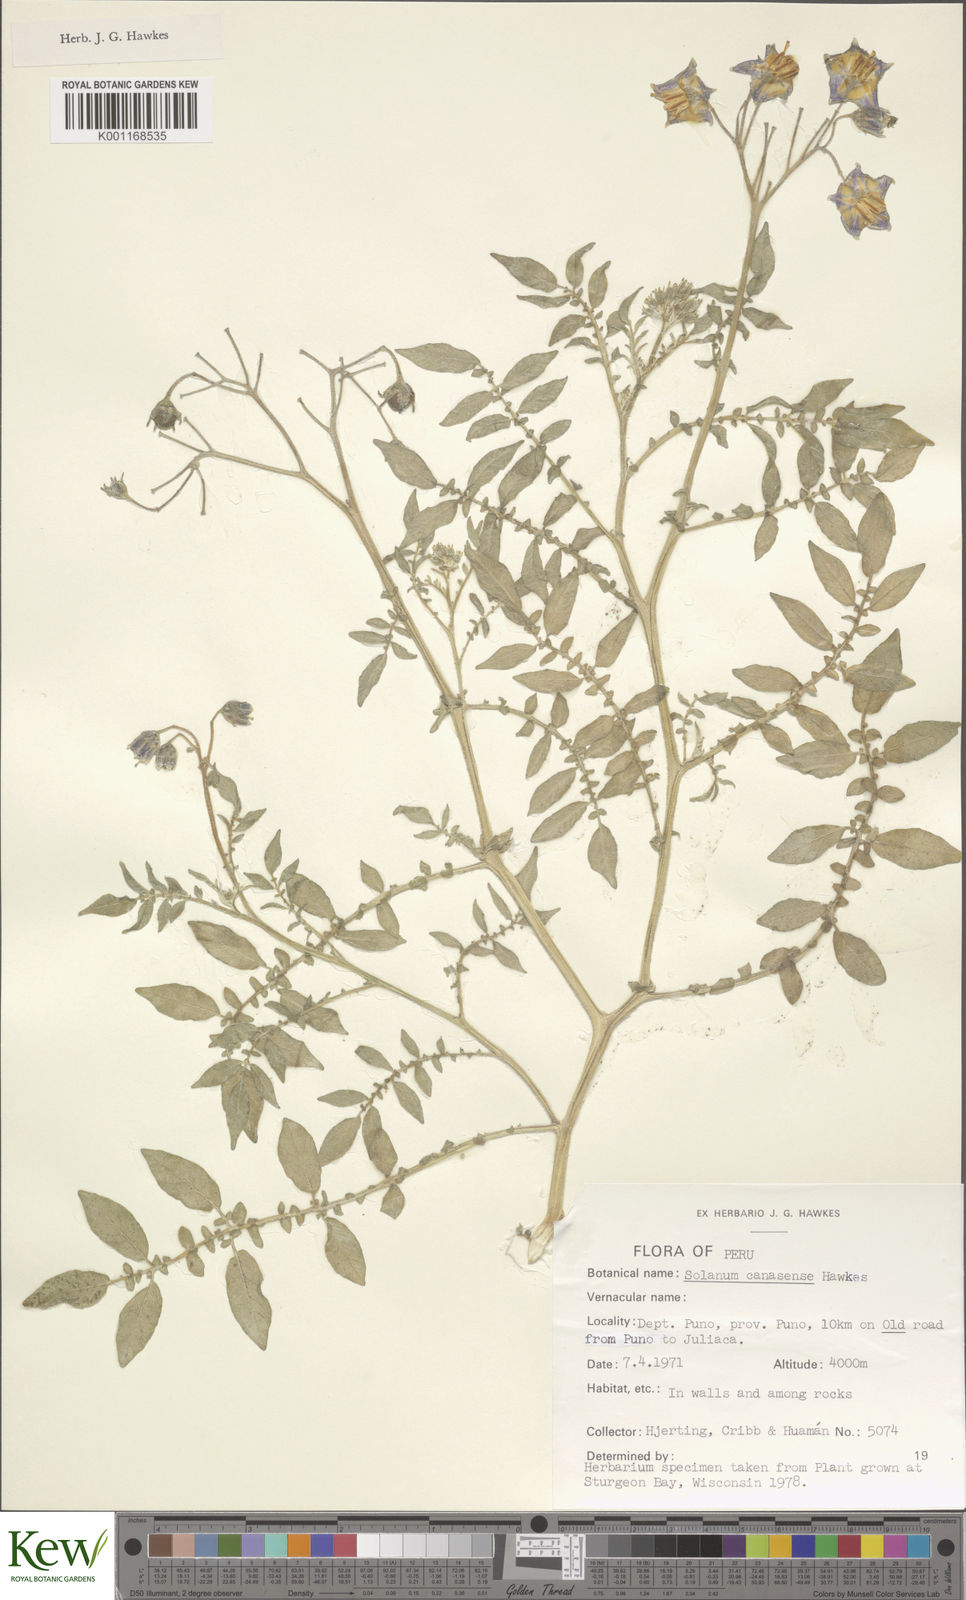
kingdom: Plantae
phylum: Tracheophyta
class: Magnoliopsida
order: Solanales
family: Solanaceae
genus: Solanum
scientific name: Solanum candolleanum
